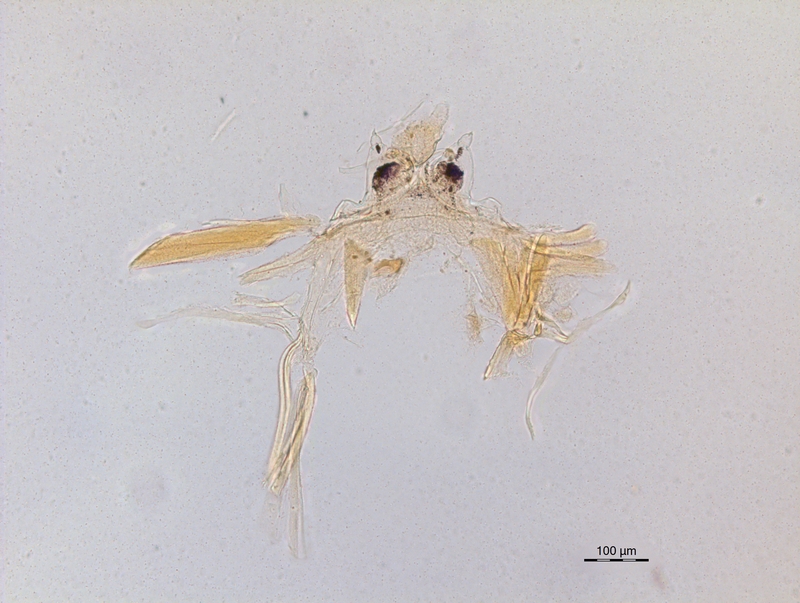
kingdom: Animalia
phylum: Arthropoda
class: Diplopoda
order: Chordeumatida
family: Craspedosomatidae
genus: Ochogona
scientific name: Ochogona pusilla
